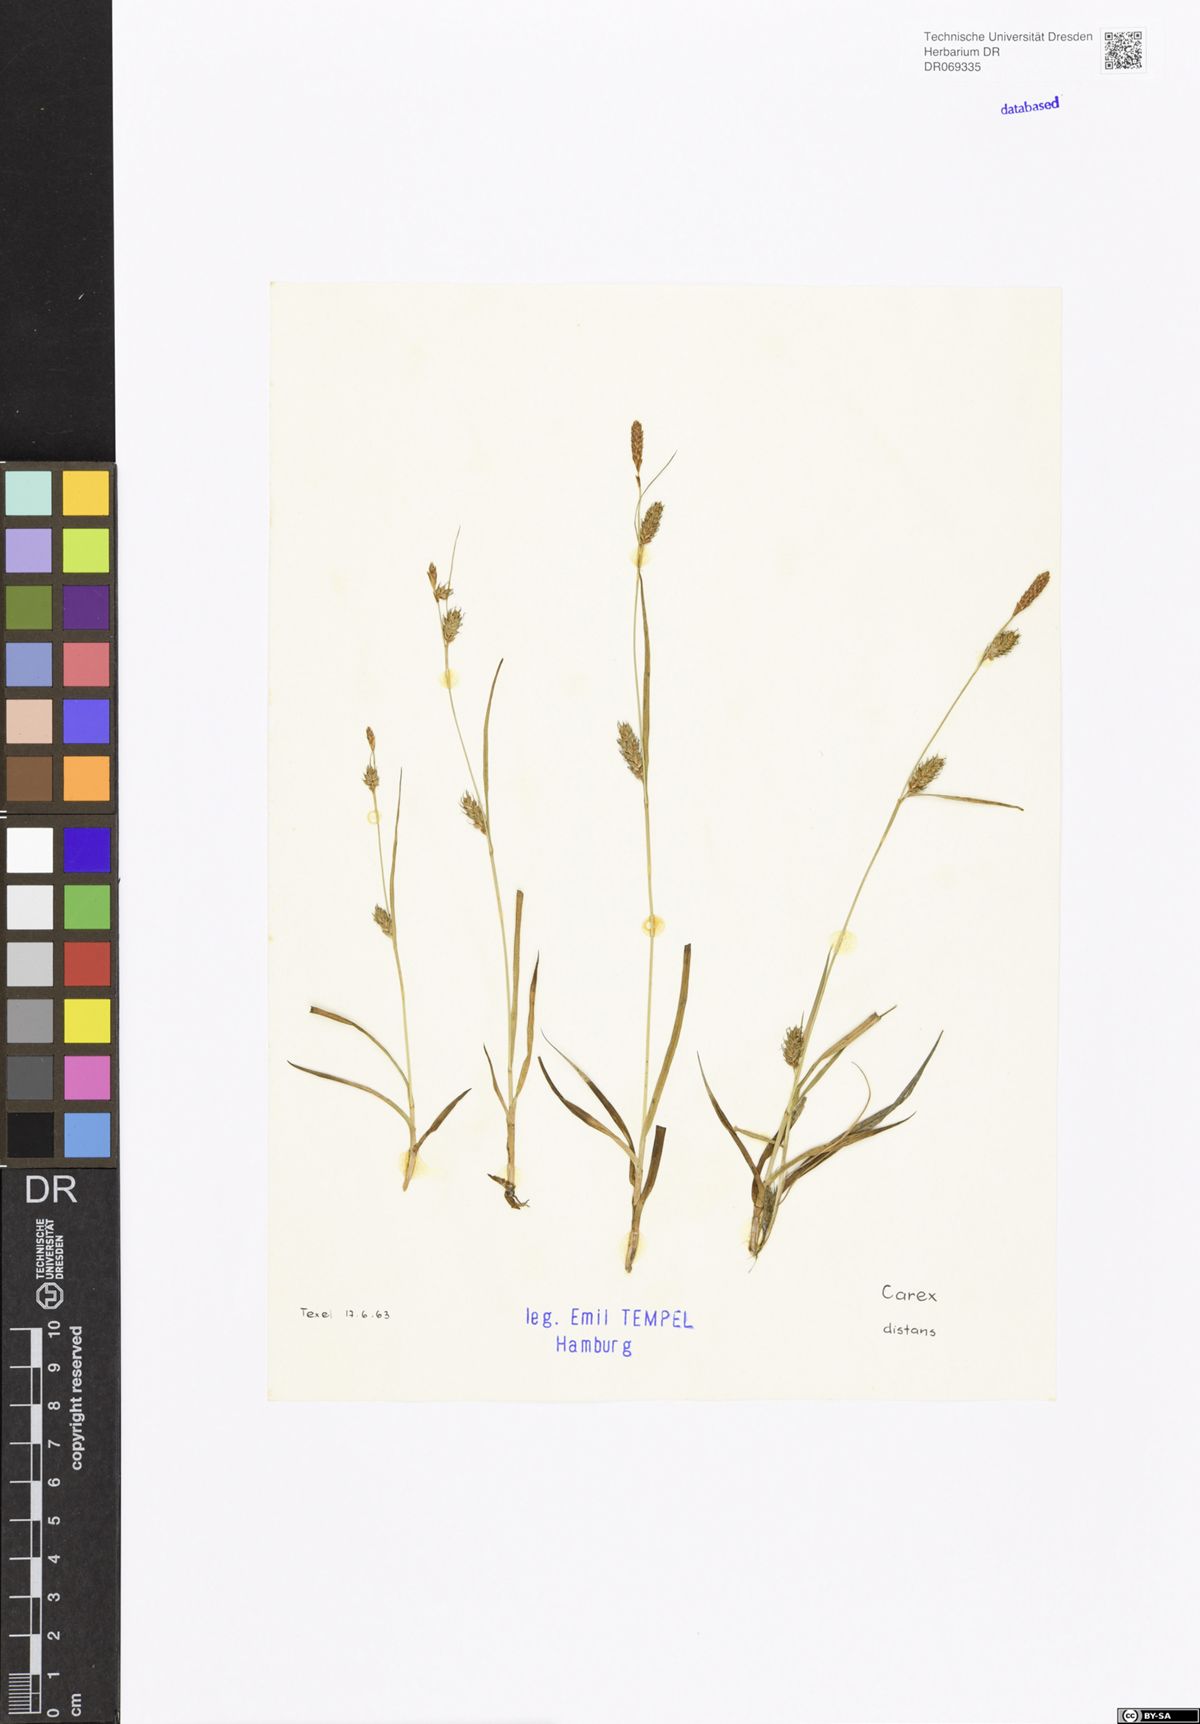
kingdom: Plantae
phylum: Tracheophyta
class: Liliopsida
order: Poales
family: Cyperaceae
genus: Carex
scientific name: Carex distans
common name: Distant sedge
